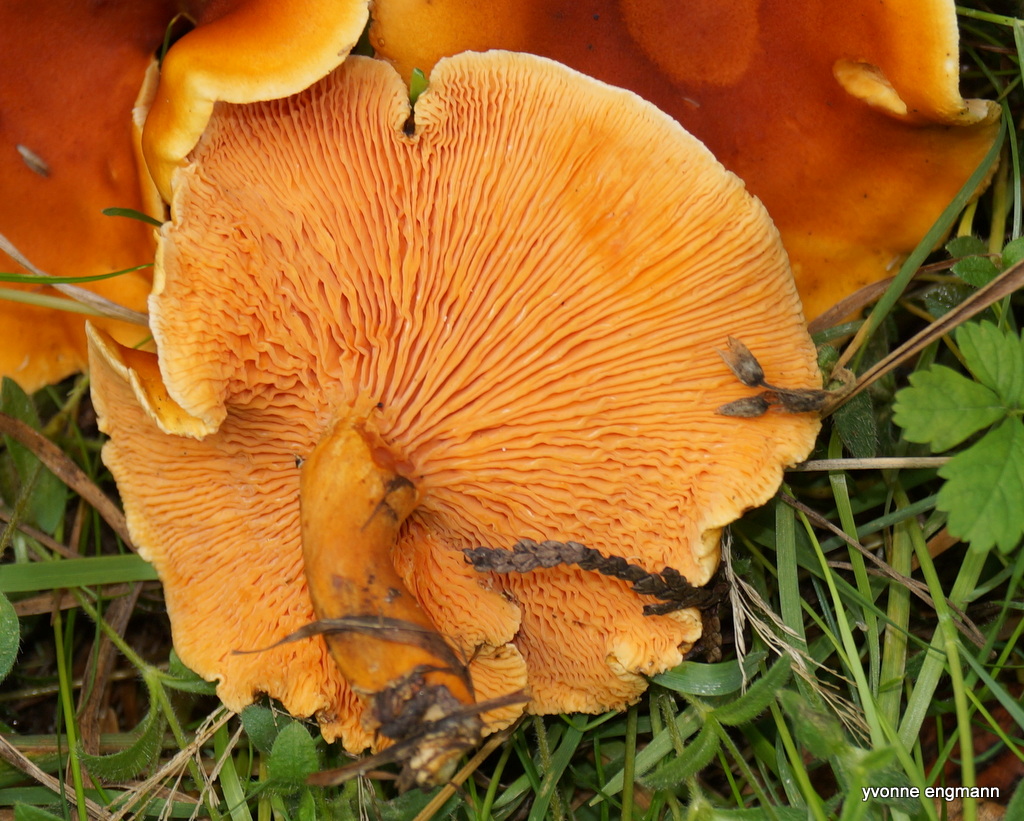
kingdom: Fungi
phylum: Basidiomycota
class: Agaricomycetes
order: Agaricales
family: Hygrophoraceae
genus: Aphroditeola
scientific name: Aphroditeola
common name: Orangekantarel
